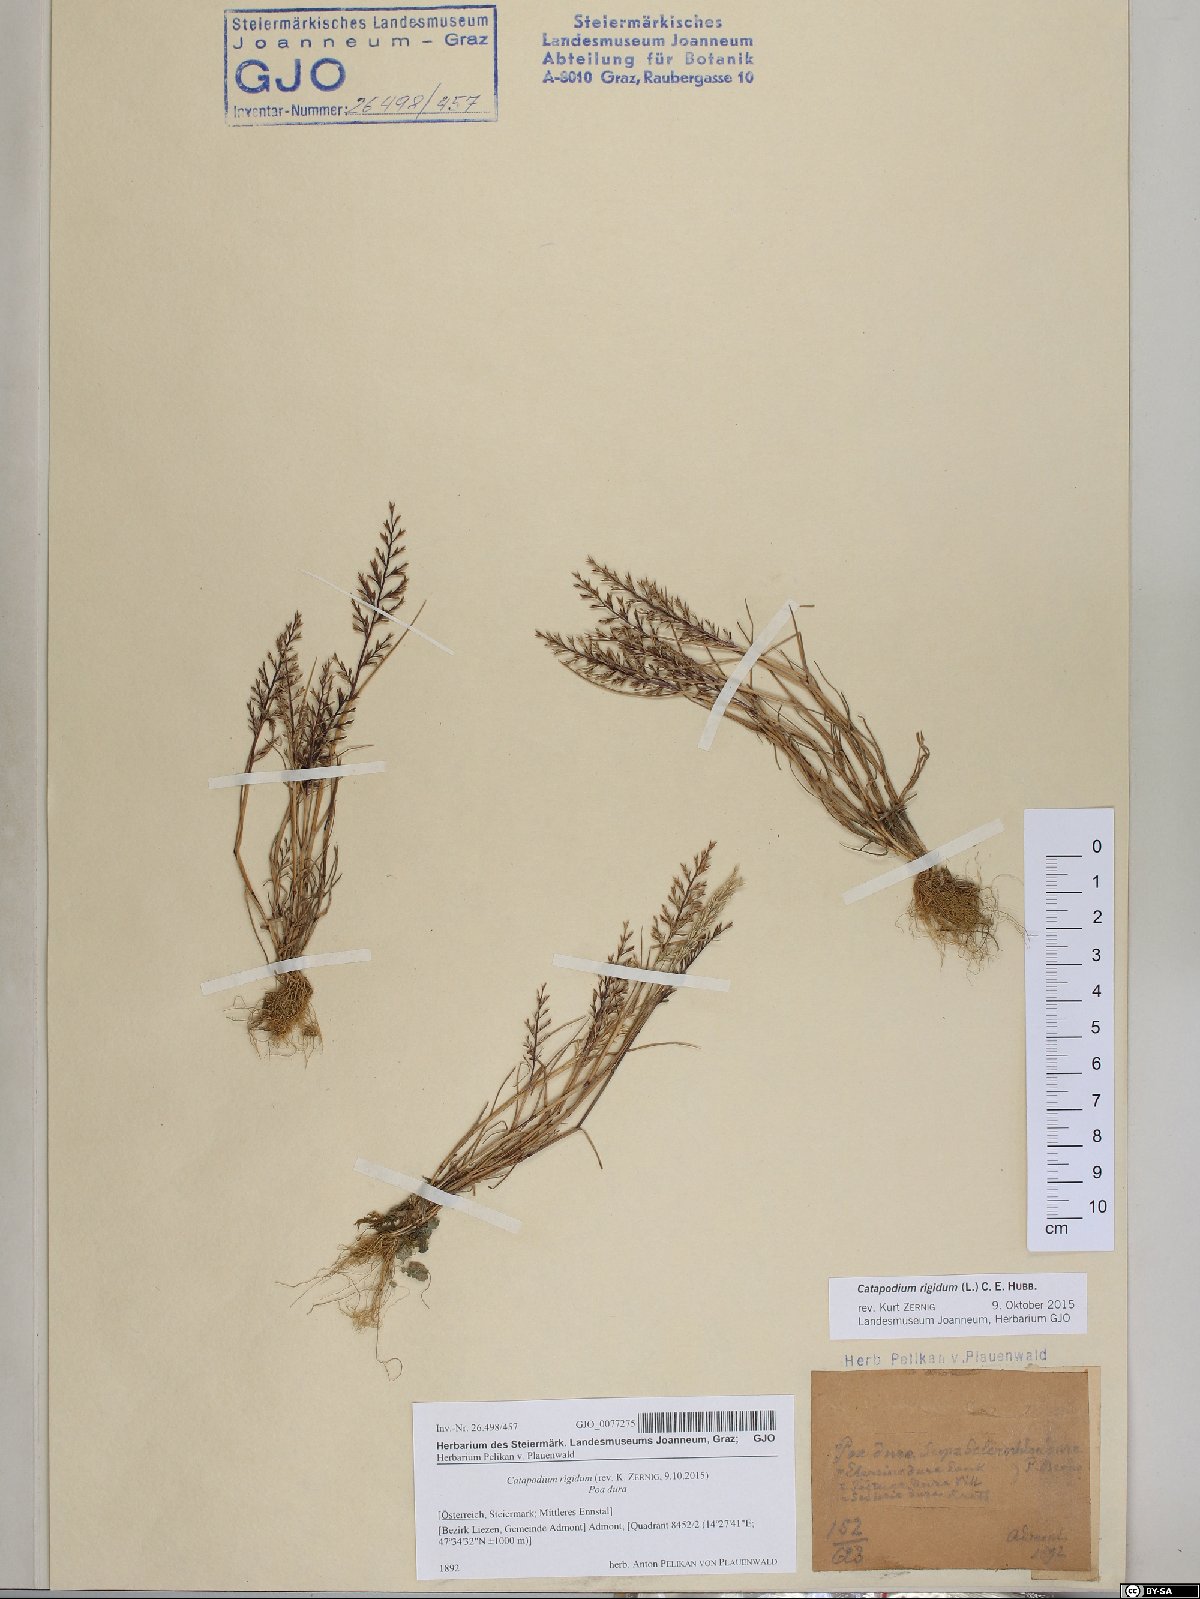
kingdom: Plantae
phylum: Tracheophyta
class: Liliopsida
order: Poales
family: Poaceae
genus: Catapodium
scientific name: Catapodium rigidum
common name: Fern-grass
